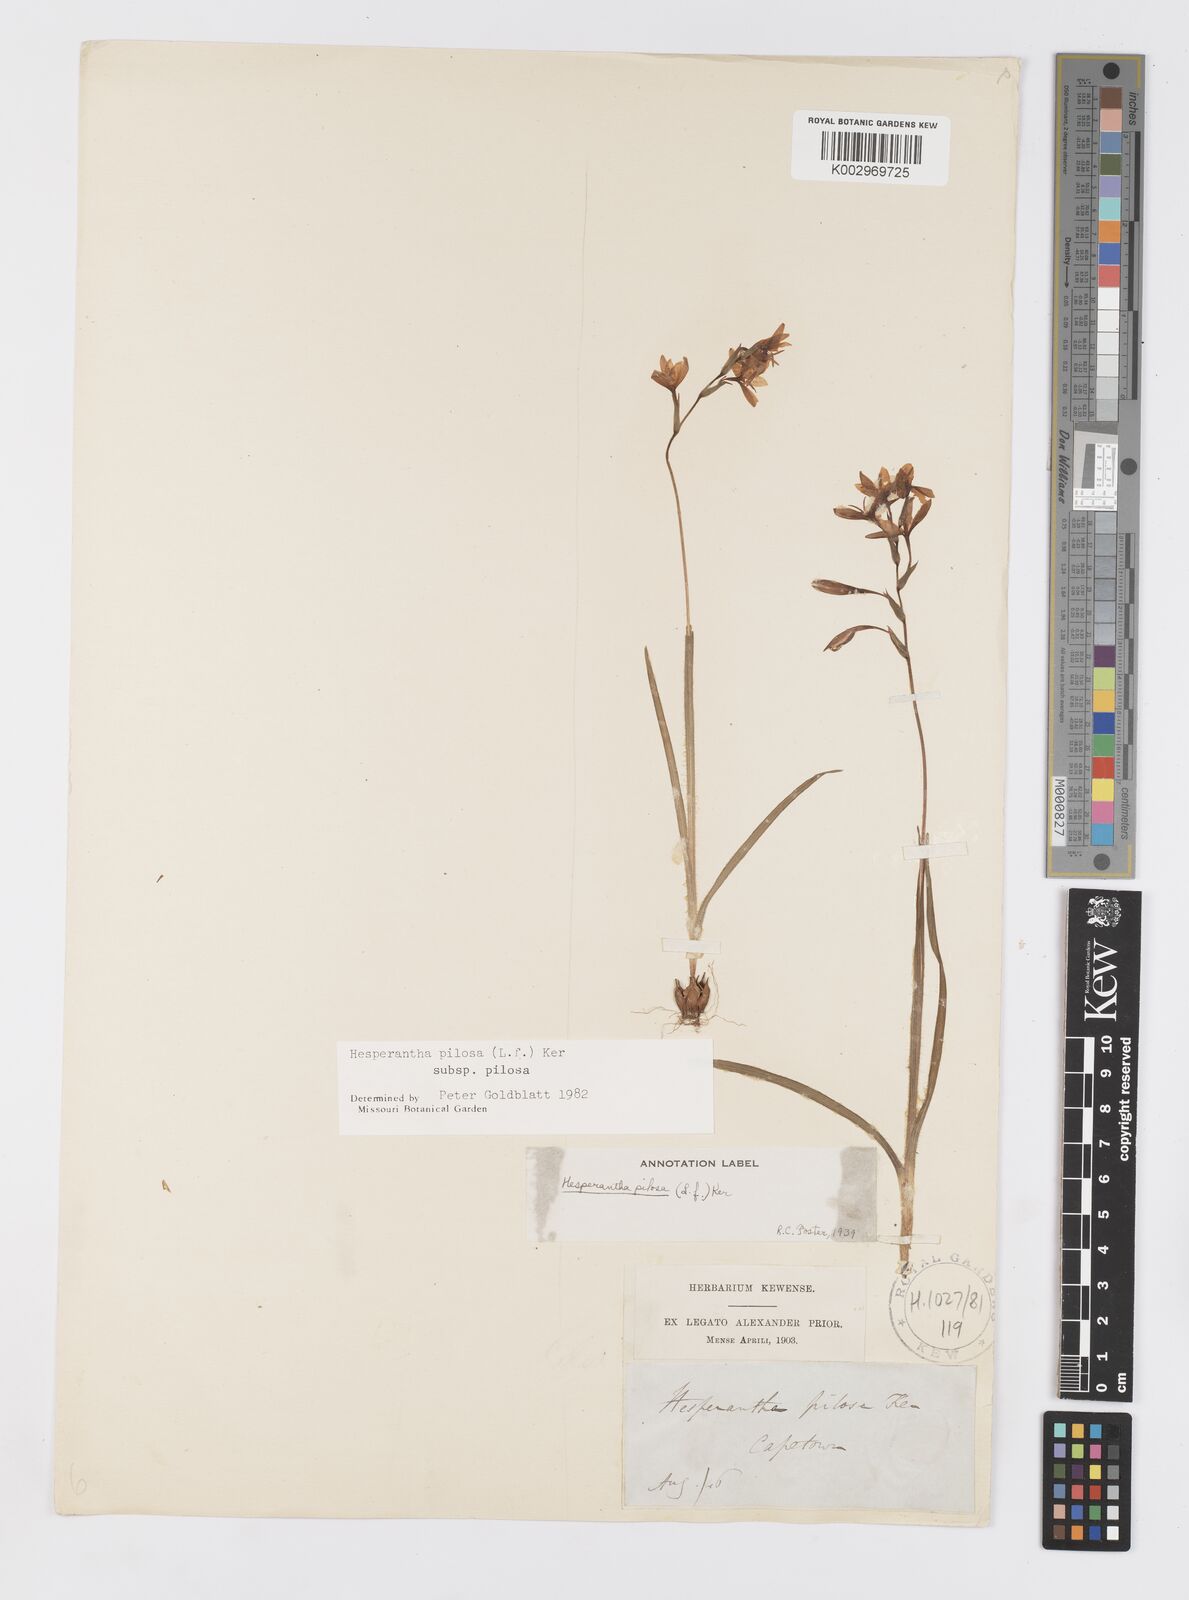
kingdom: Plantae
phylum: Tracheophyta
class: Liliopsida
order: Asparagales
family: Iridaceae
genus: Hesperantha
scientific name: Hesperantha pilosa
